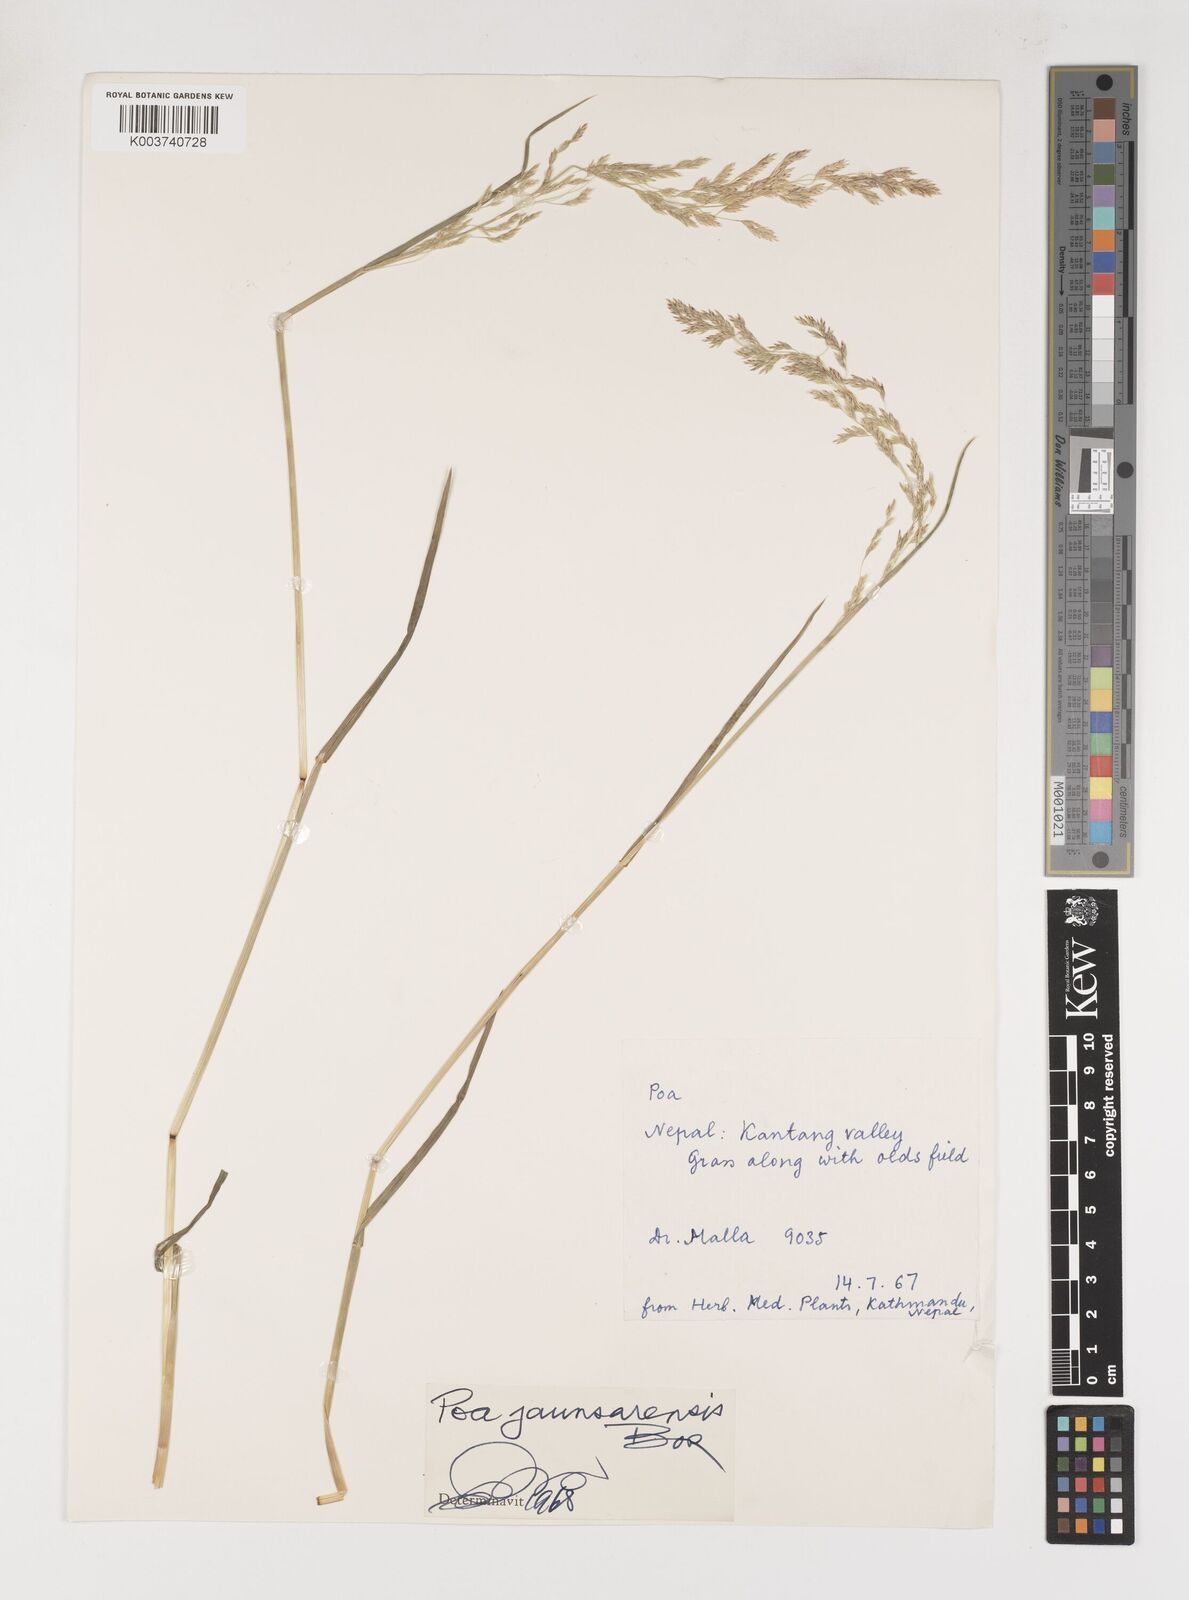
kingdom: Plantae
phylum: Tracheophyta
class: Liliopsida
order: Poales
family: Poaceae
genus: Poa
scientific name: Poa jaunsarensis
